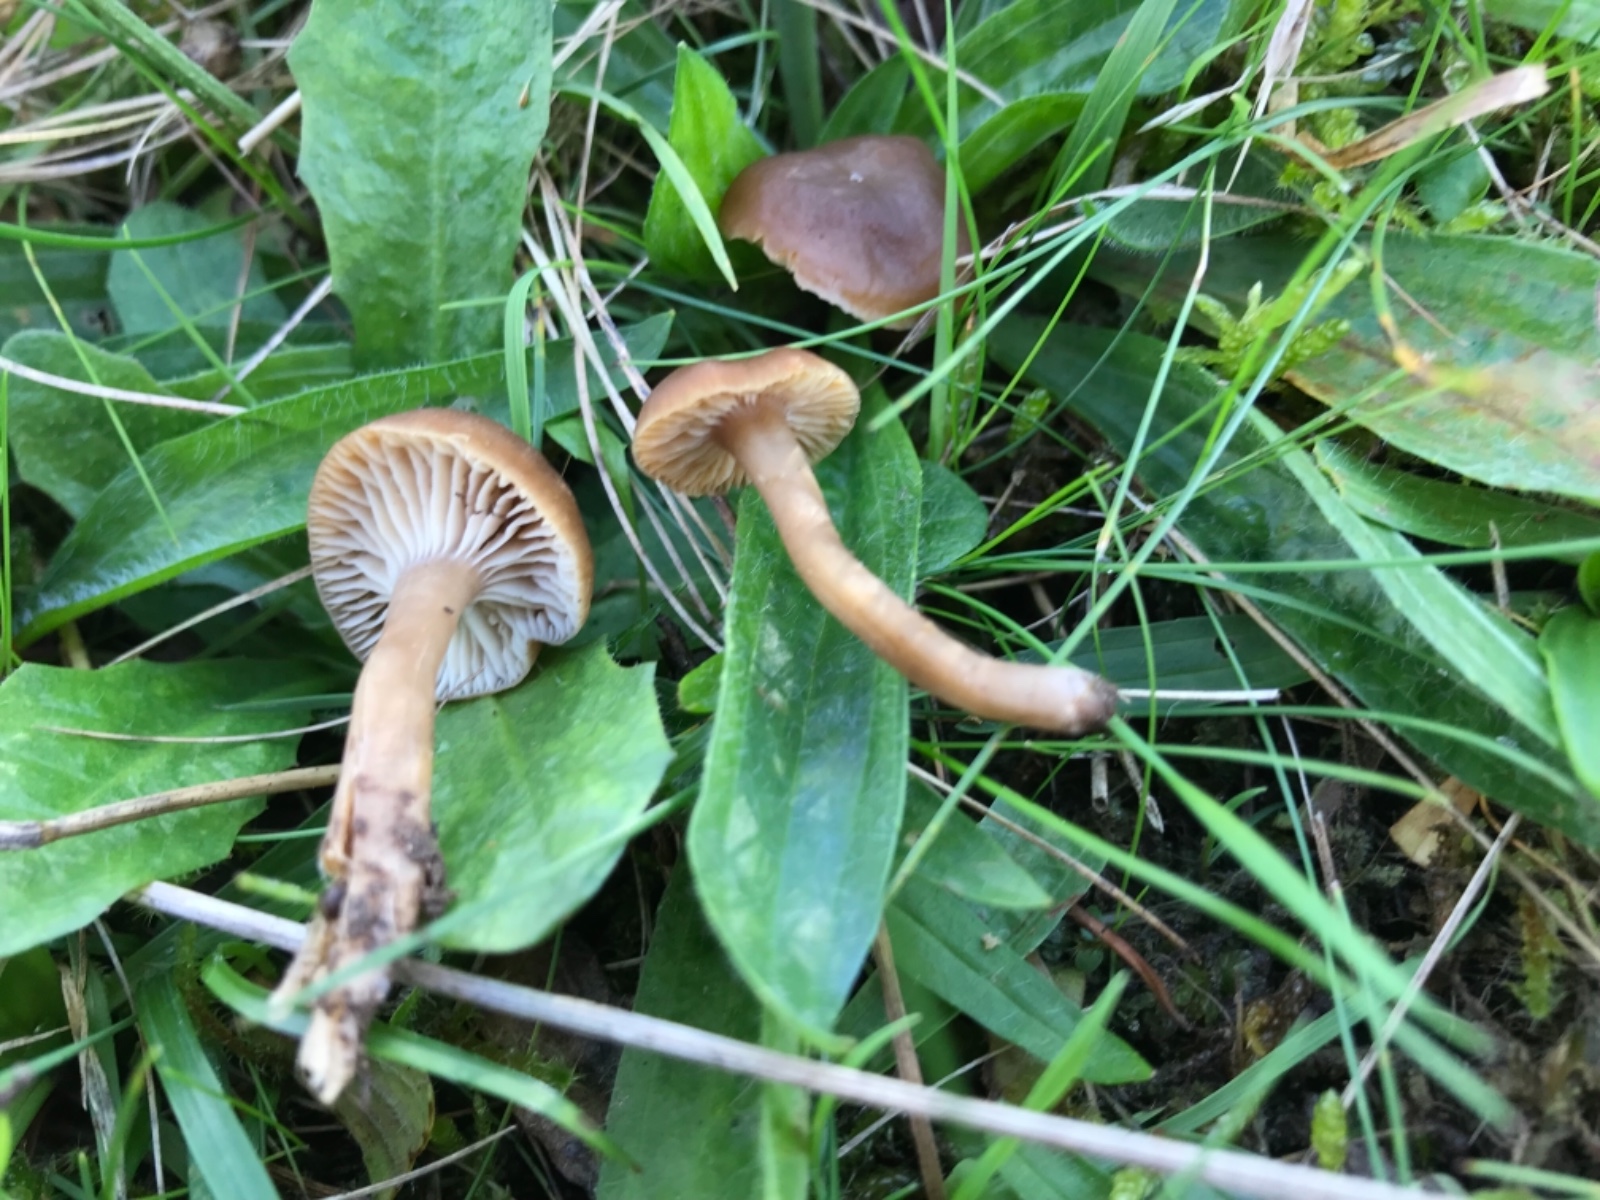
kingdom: Fungi
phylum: Basidiomycota
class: Agaricomycetes
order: Agaricales
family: Clavariaceae
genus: Camarophyllopsis
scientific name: Camarophyllopsis schulzeri
